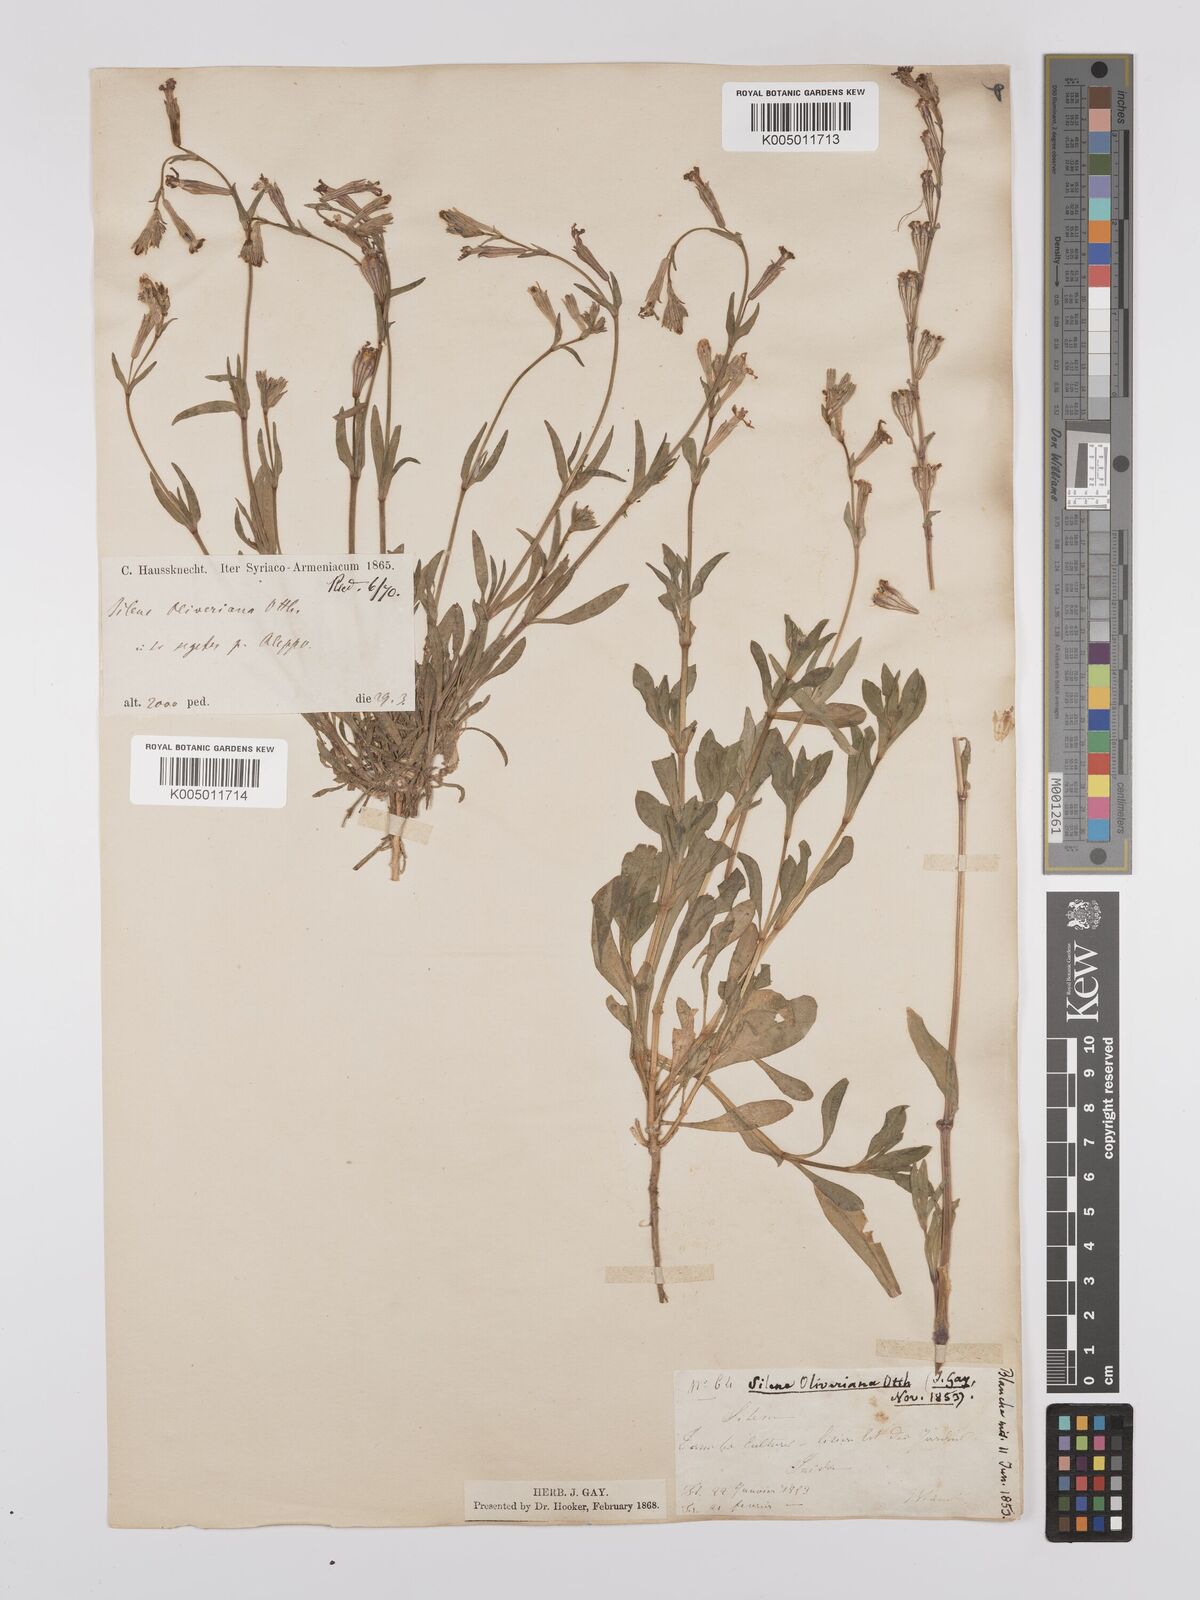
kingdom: Plantae
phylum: Tracheophyta
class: Magnoliopsida
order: Caryophyllales
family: Caryophyllaceae
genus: Silene
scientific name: Silene oliveriana
